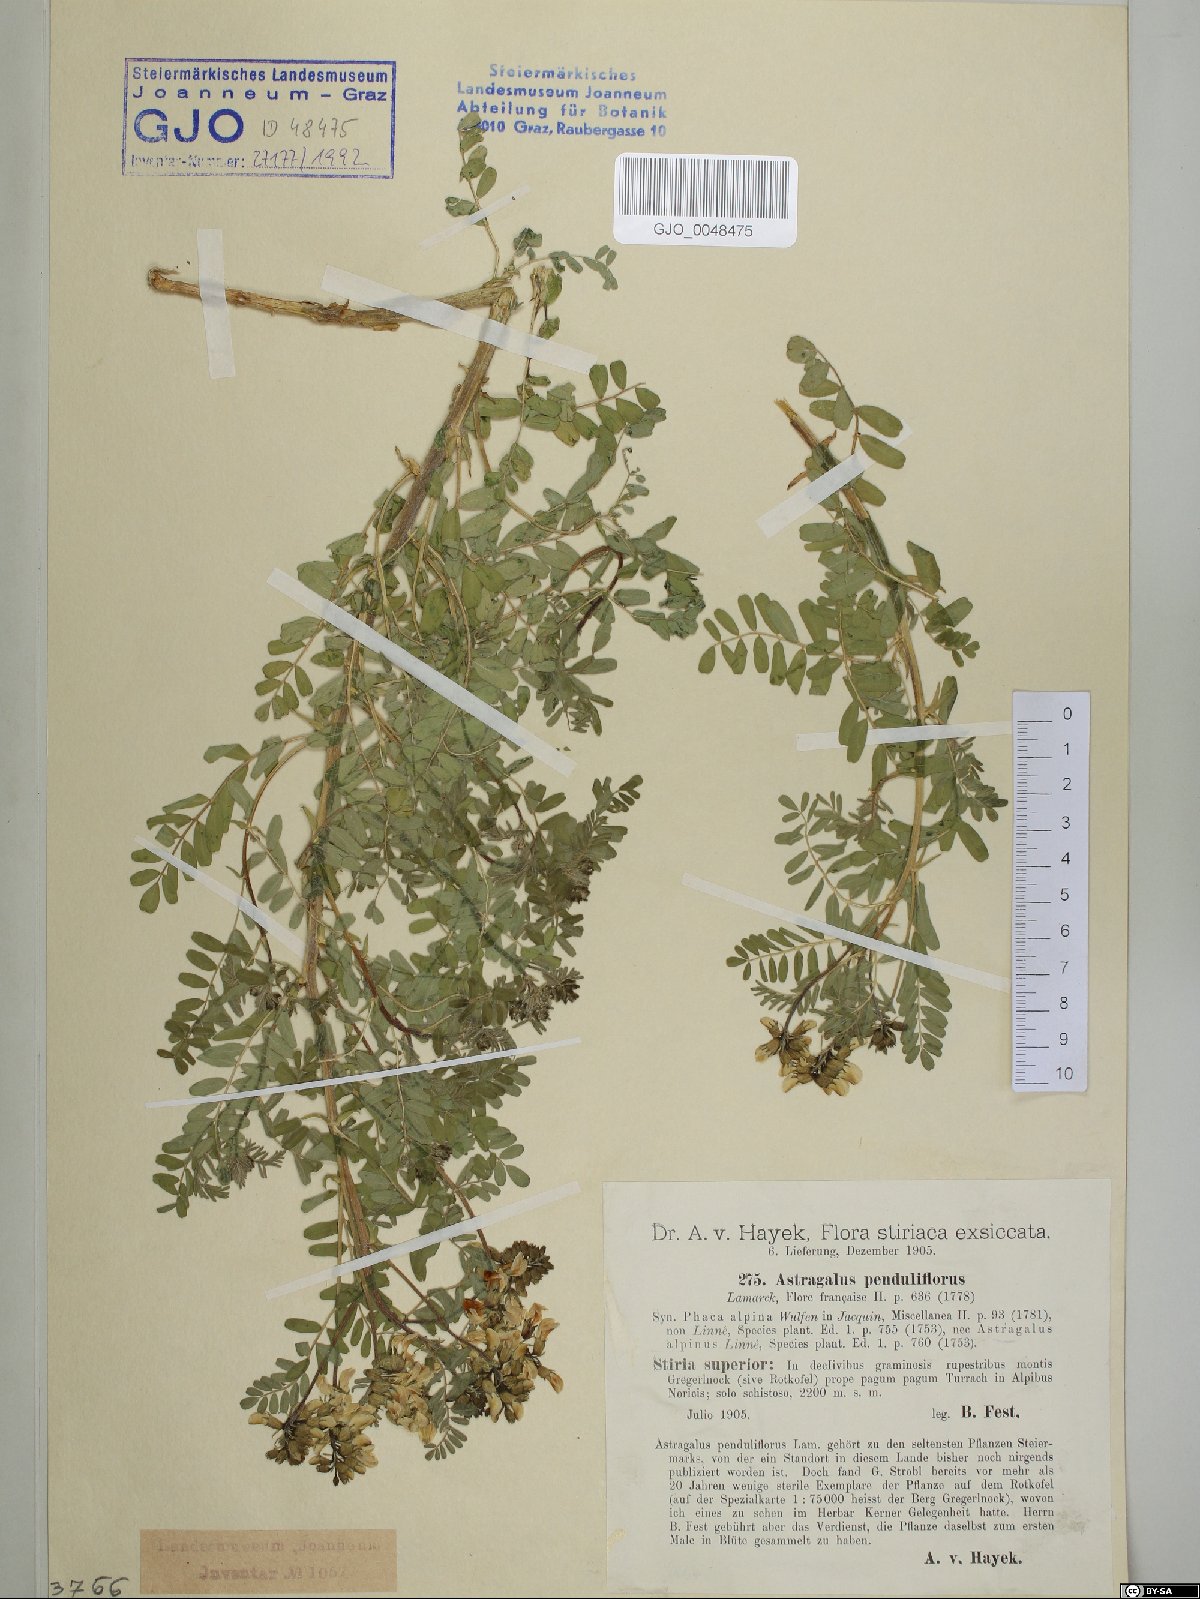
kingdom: Plantae
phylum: Tracheophyta
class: Magnoliopsida
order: Fabales
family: Fabaceae
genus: Astragalus
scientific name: Astragalus penduliflorus
